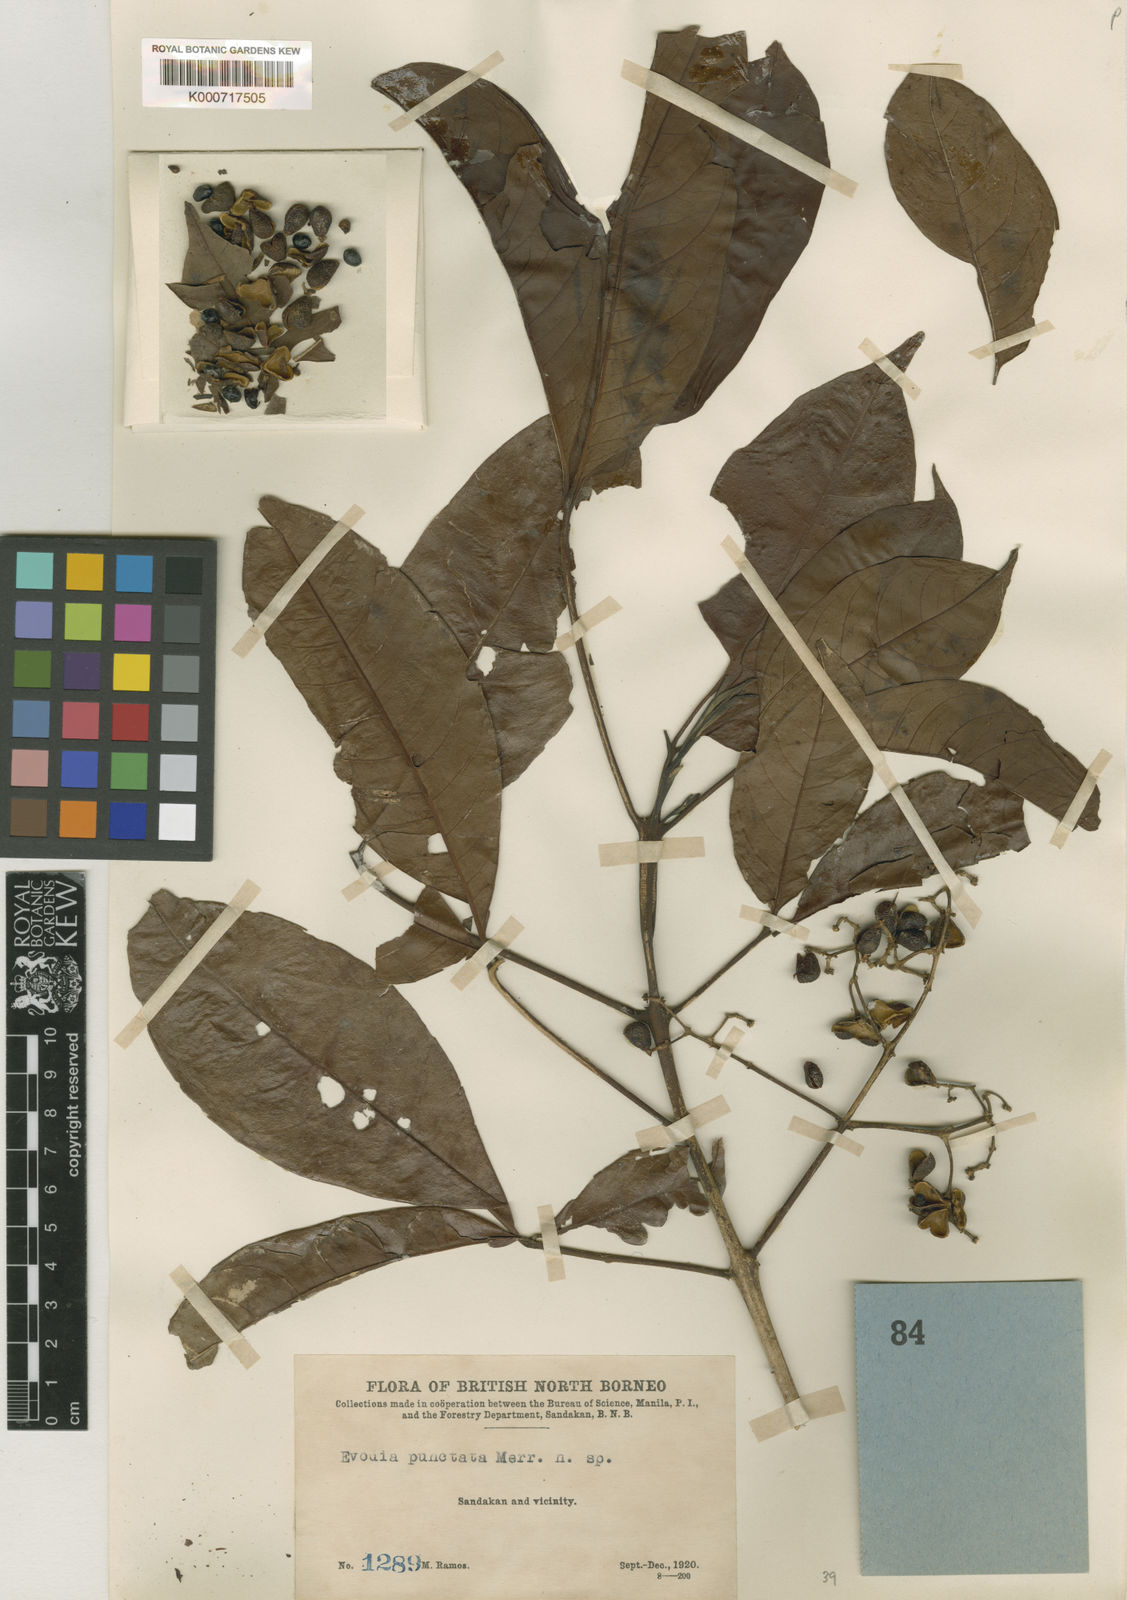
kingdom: Plantae
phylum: Tracheophyta
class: Magnoliopsida
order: Sapindales
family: Rutaceae
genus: Melicope
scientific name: Melicope lunu-ankenda
